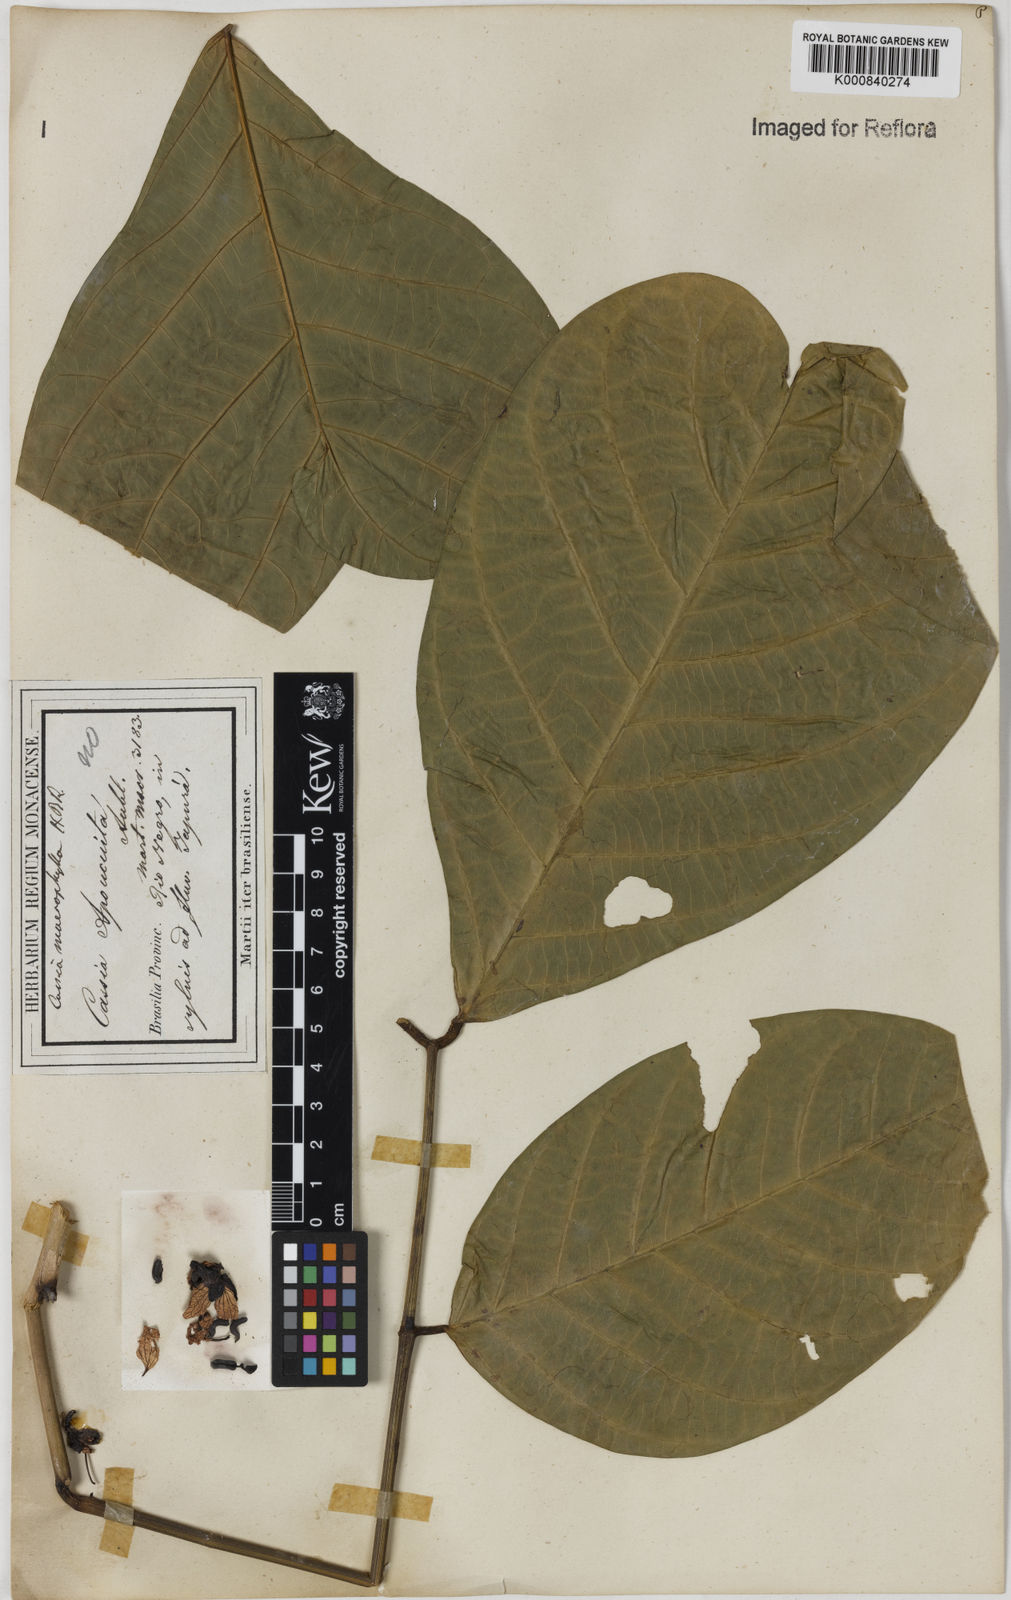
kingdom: Plantae
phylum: Tracheophyta
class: Magnoliopsida
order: Fabales
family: Fabaceae
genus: Senna
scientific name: Senna macrophylla
